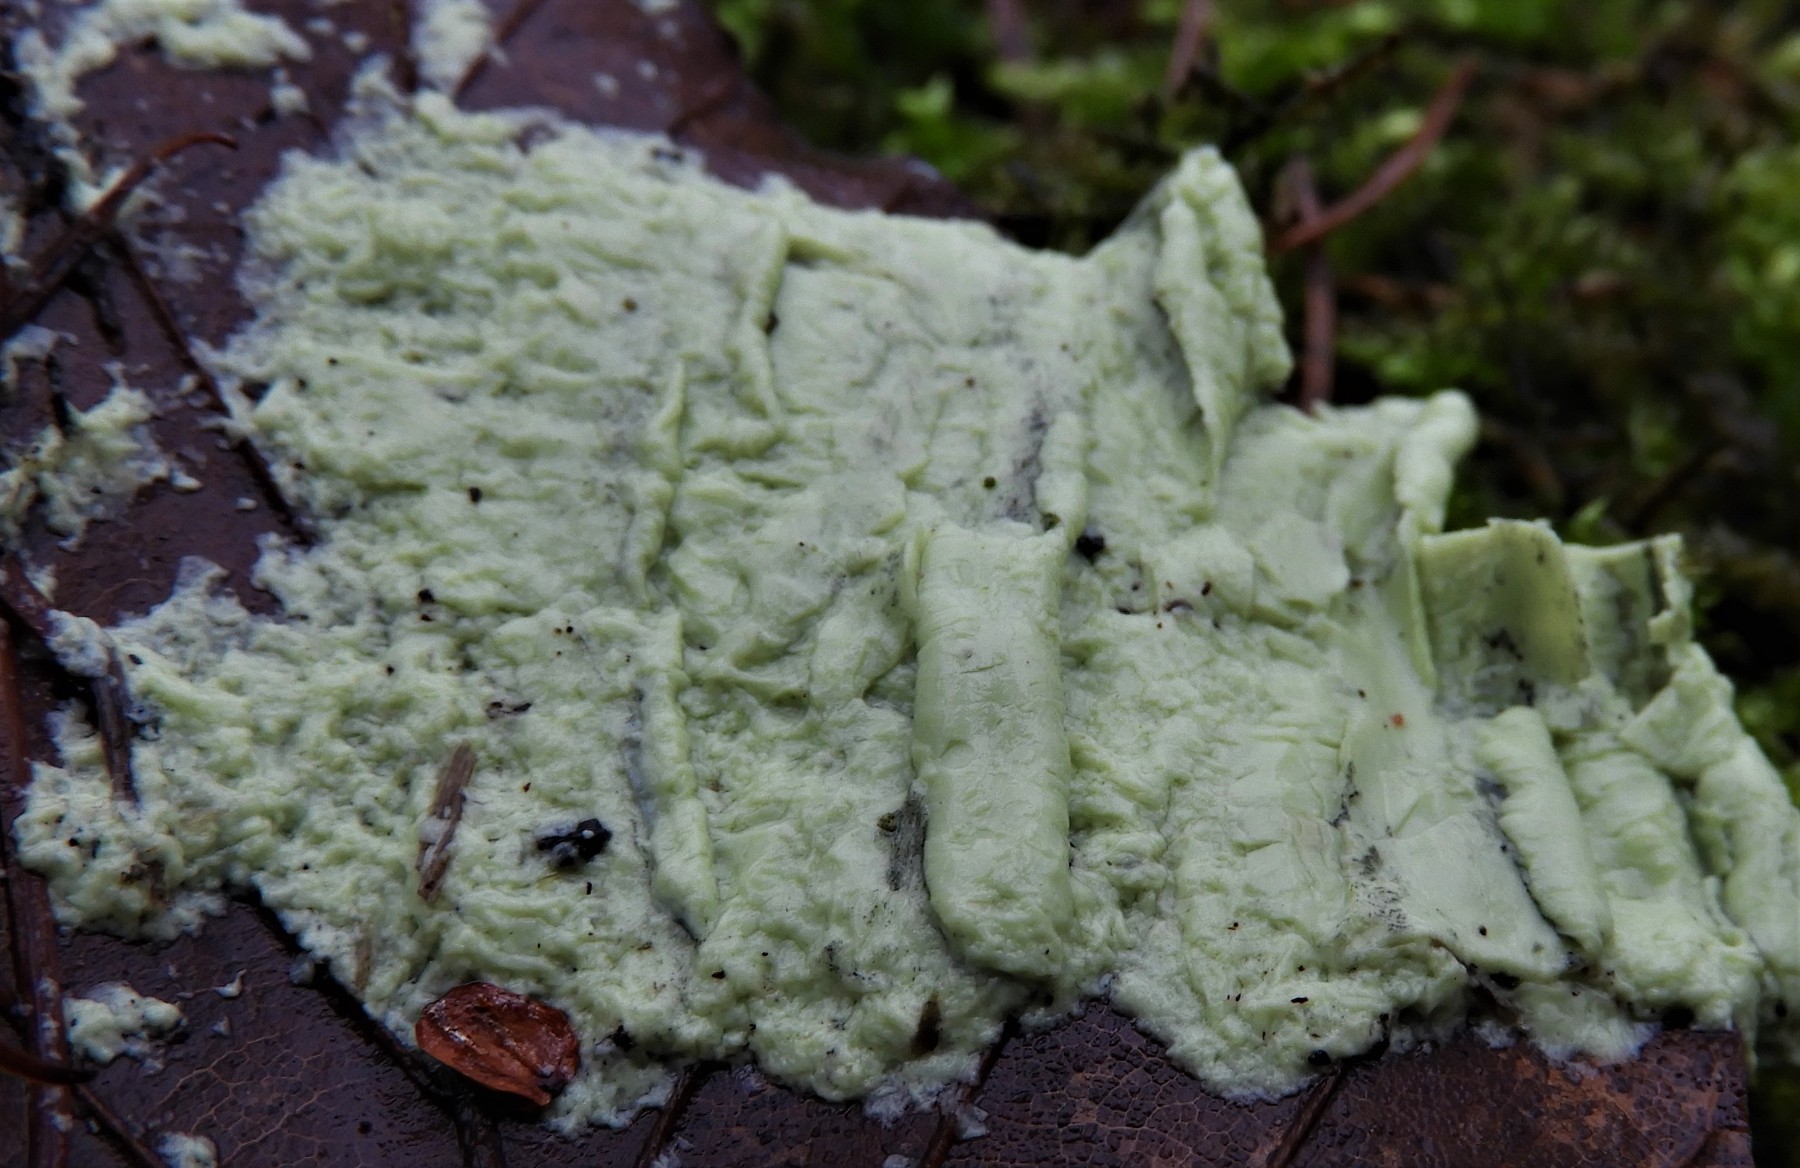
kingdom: Fungi
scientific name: Fungi
